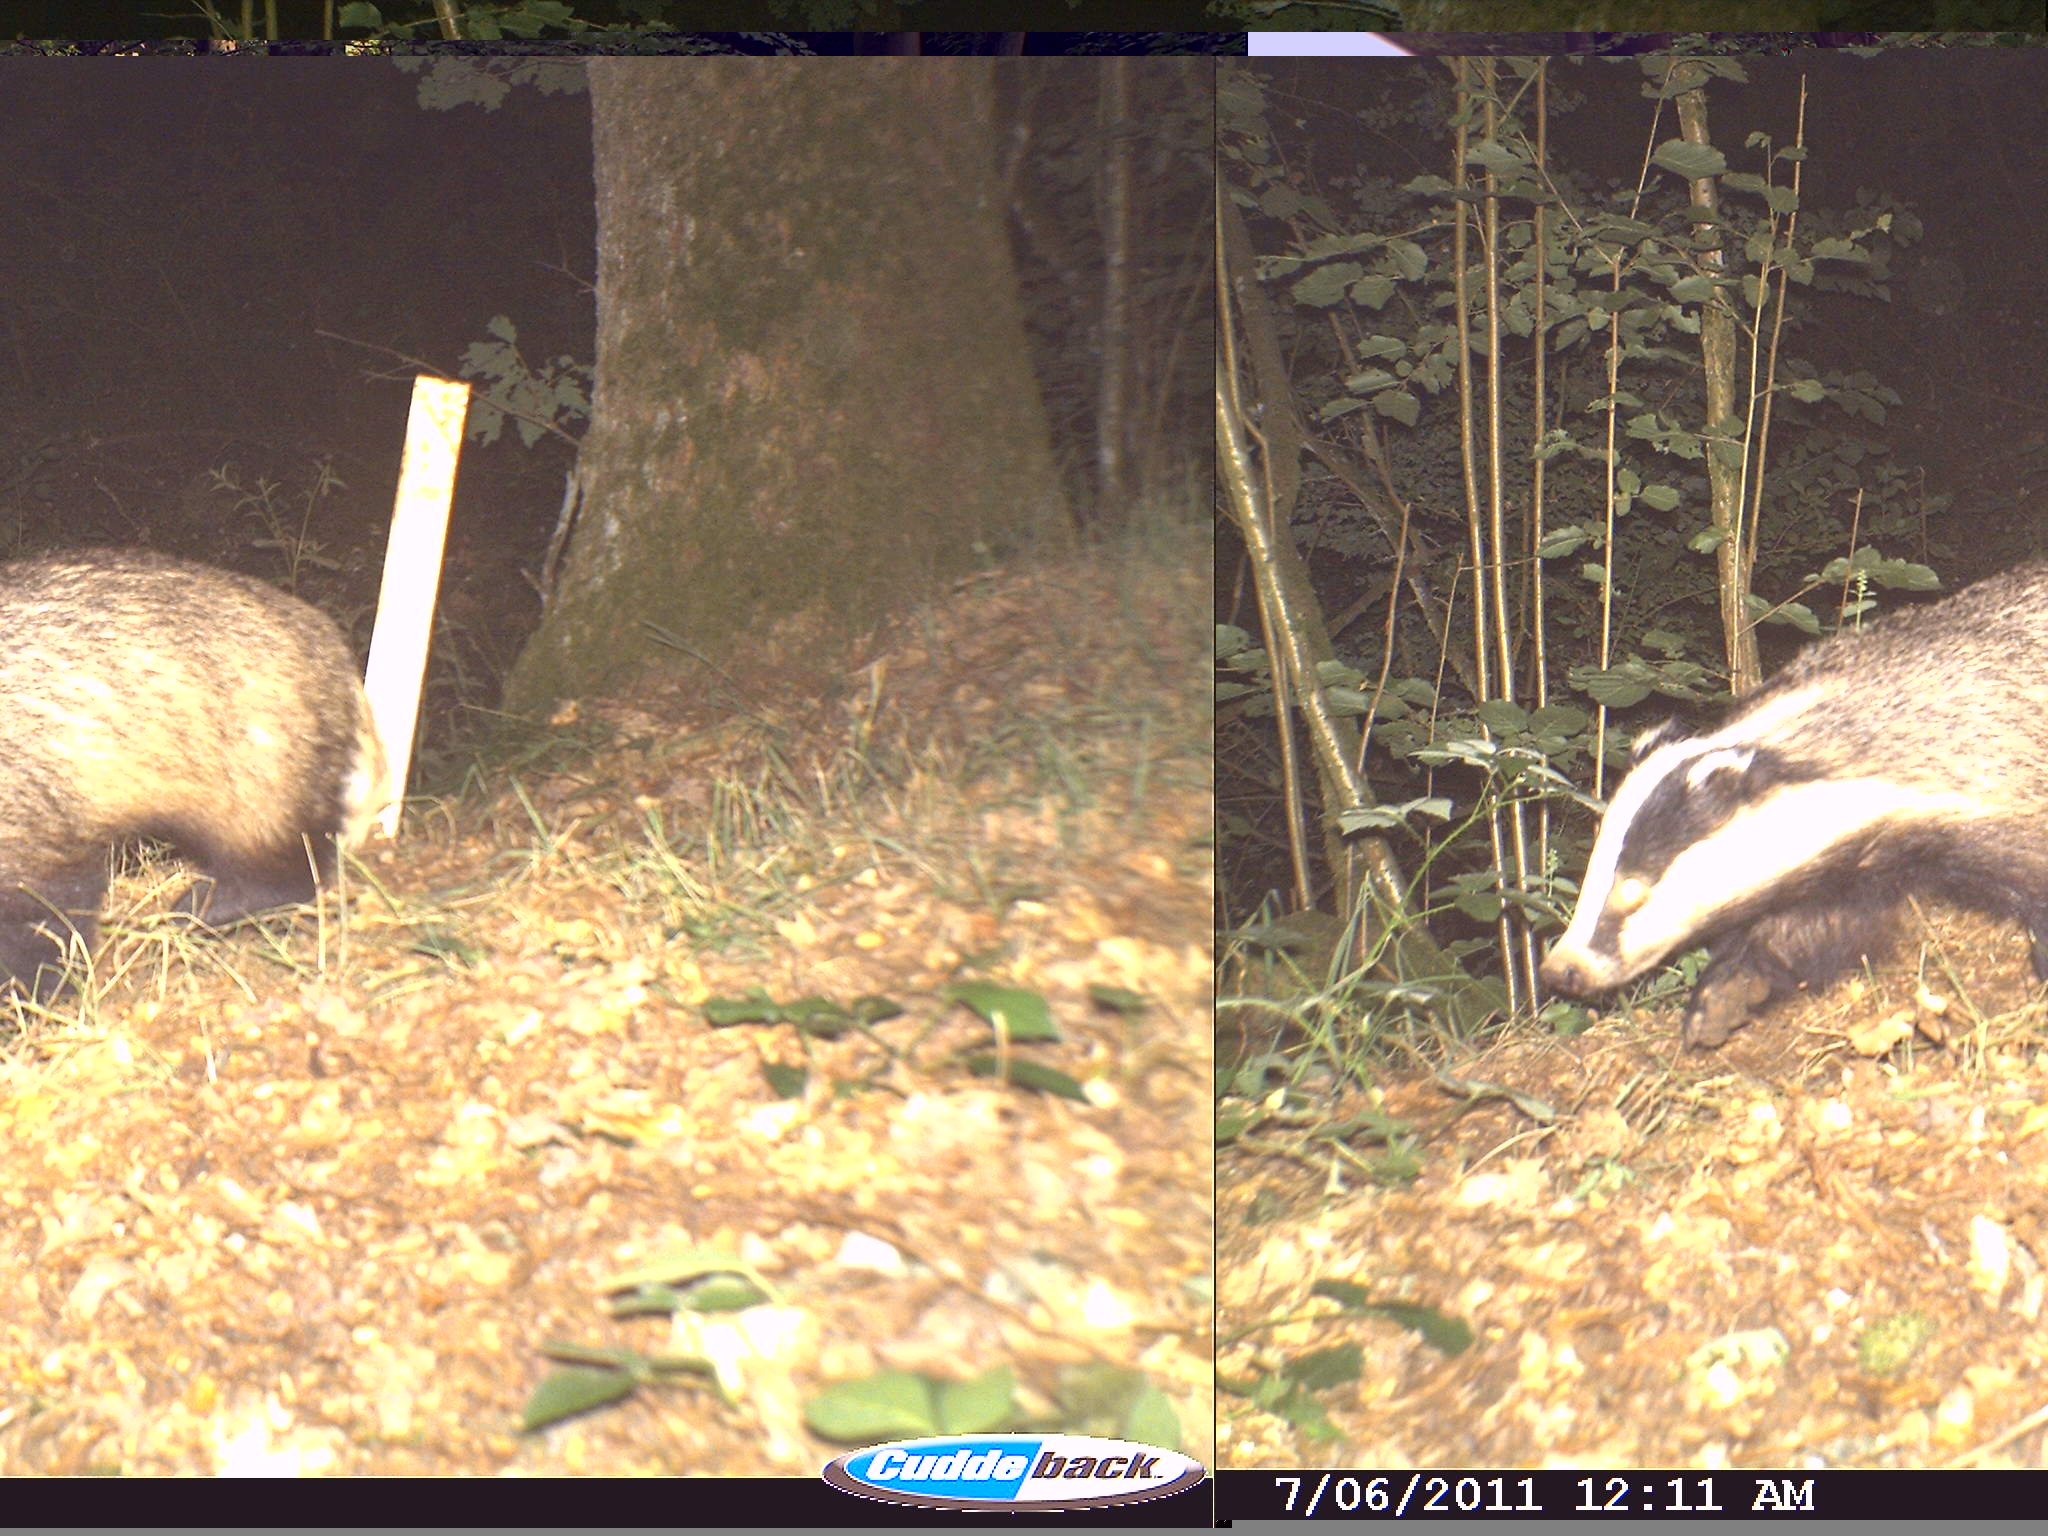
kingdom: Animalia
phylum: Chordata
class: Mammalia
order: Carnivora
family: Mustelidae
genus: Meles
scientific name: Meles meles
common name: Eurasian badger
